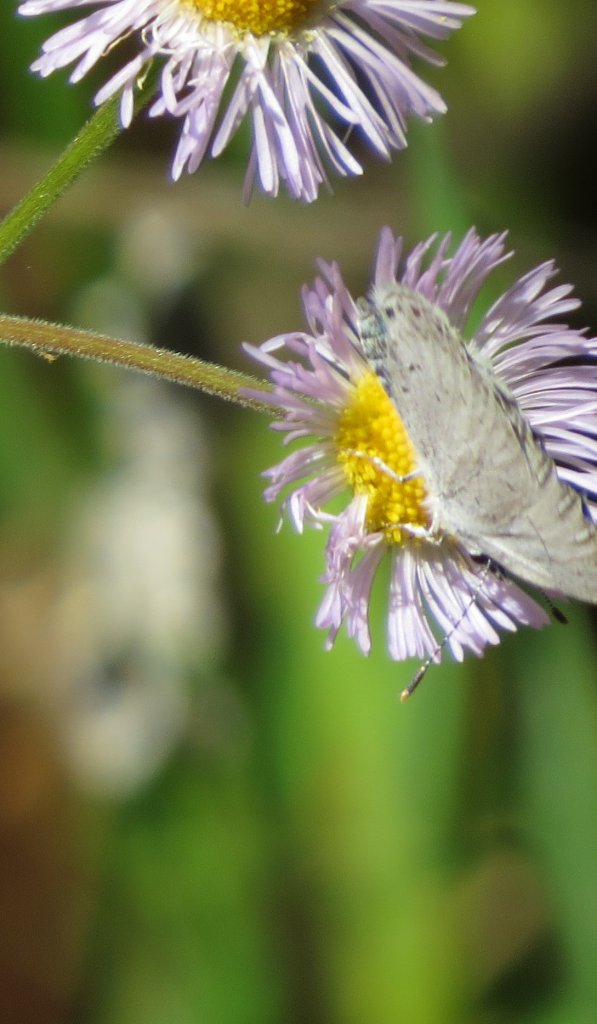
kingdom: Animalia
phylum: Arthropoda
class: Insecta
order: Lepidoptera
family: Lycaenidae
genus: Cyaniris
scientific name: Cyaniris neglecta
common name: Summer Azure
